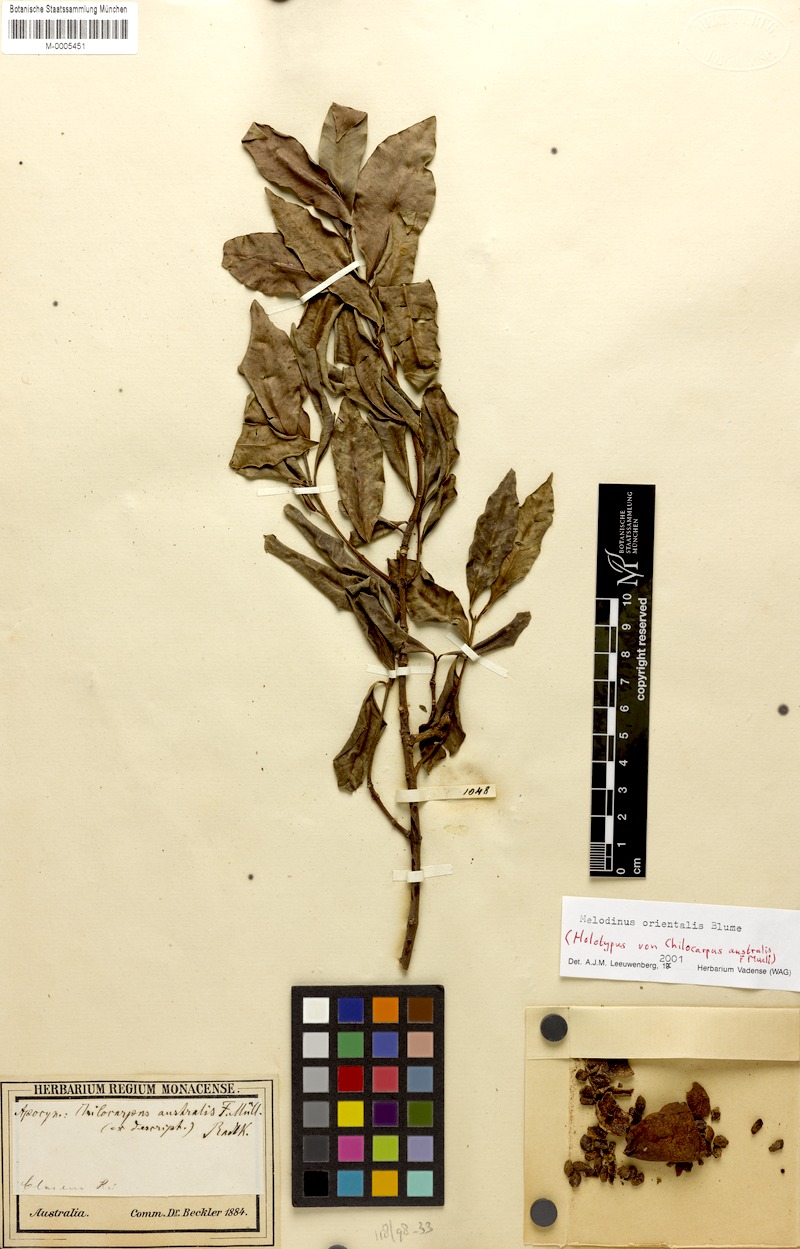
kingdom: Plantae
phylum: Tracheophyta
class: Magnoliopsida
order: Gentianales
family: Apocynaceae
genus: Melodinus
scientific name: Melodinus orientalis
